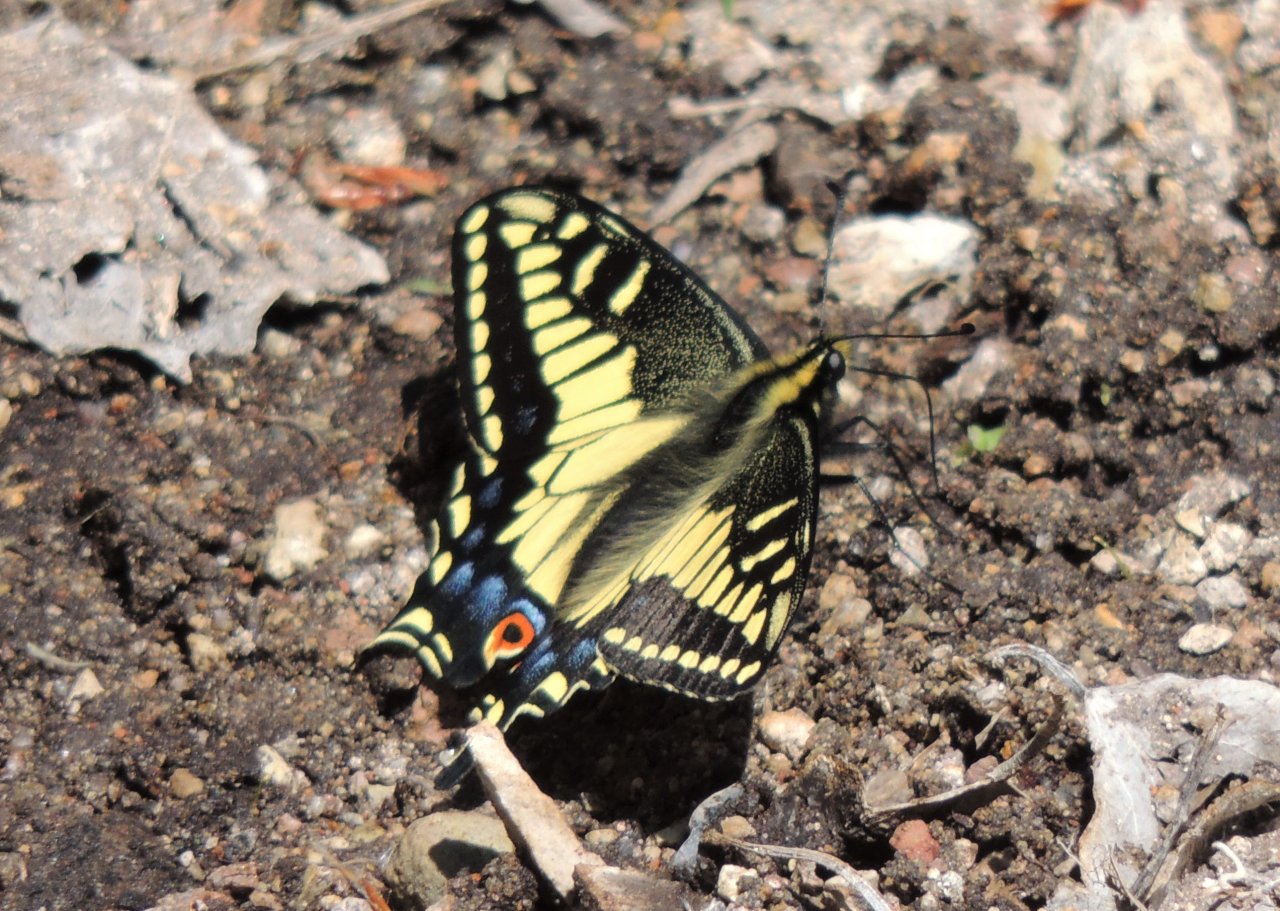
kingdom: Animalia
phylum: Arthropoda
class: Insecta
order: Lepidoptera
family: Papilionidae
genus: Papilio
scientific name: Papilio zelicaon
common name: Anise Swallowtail
